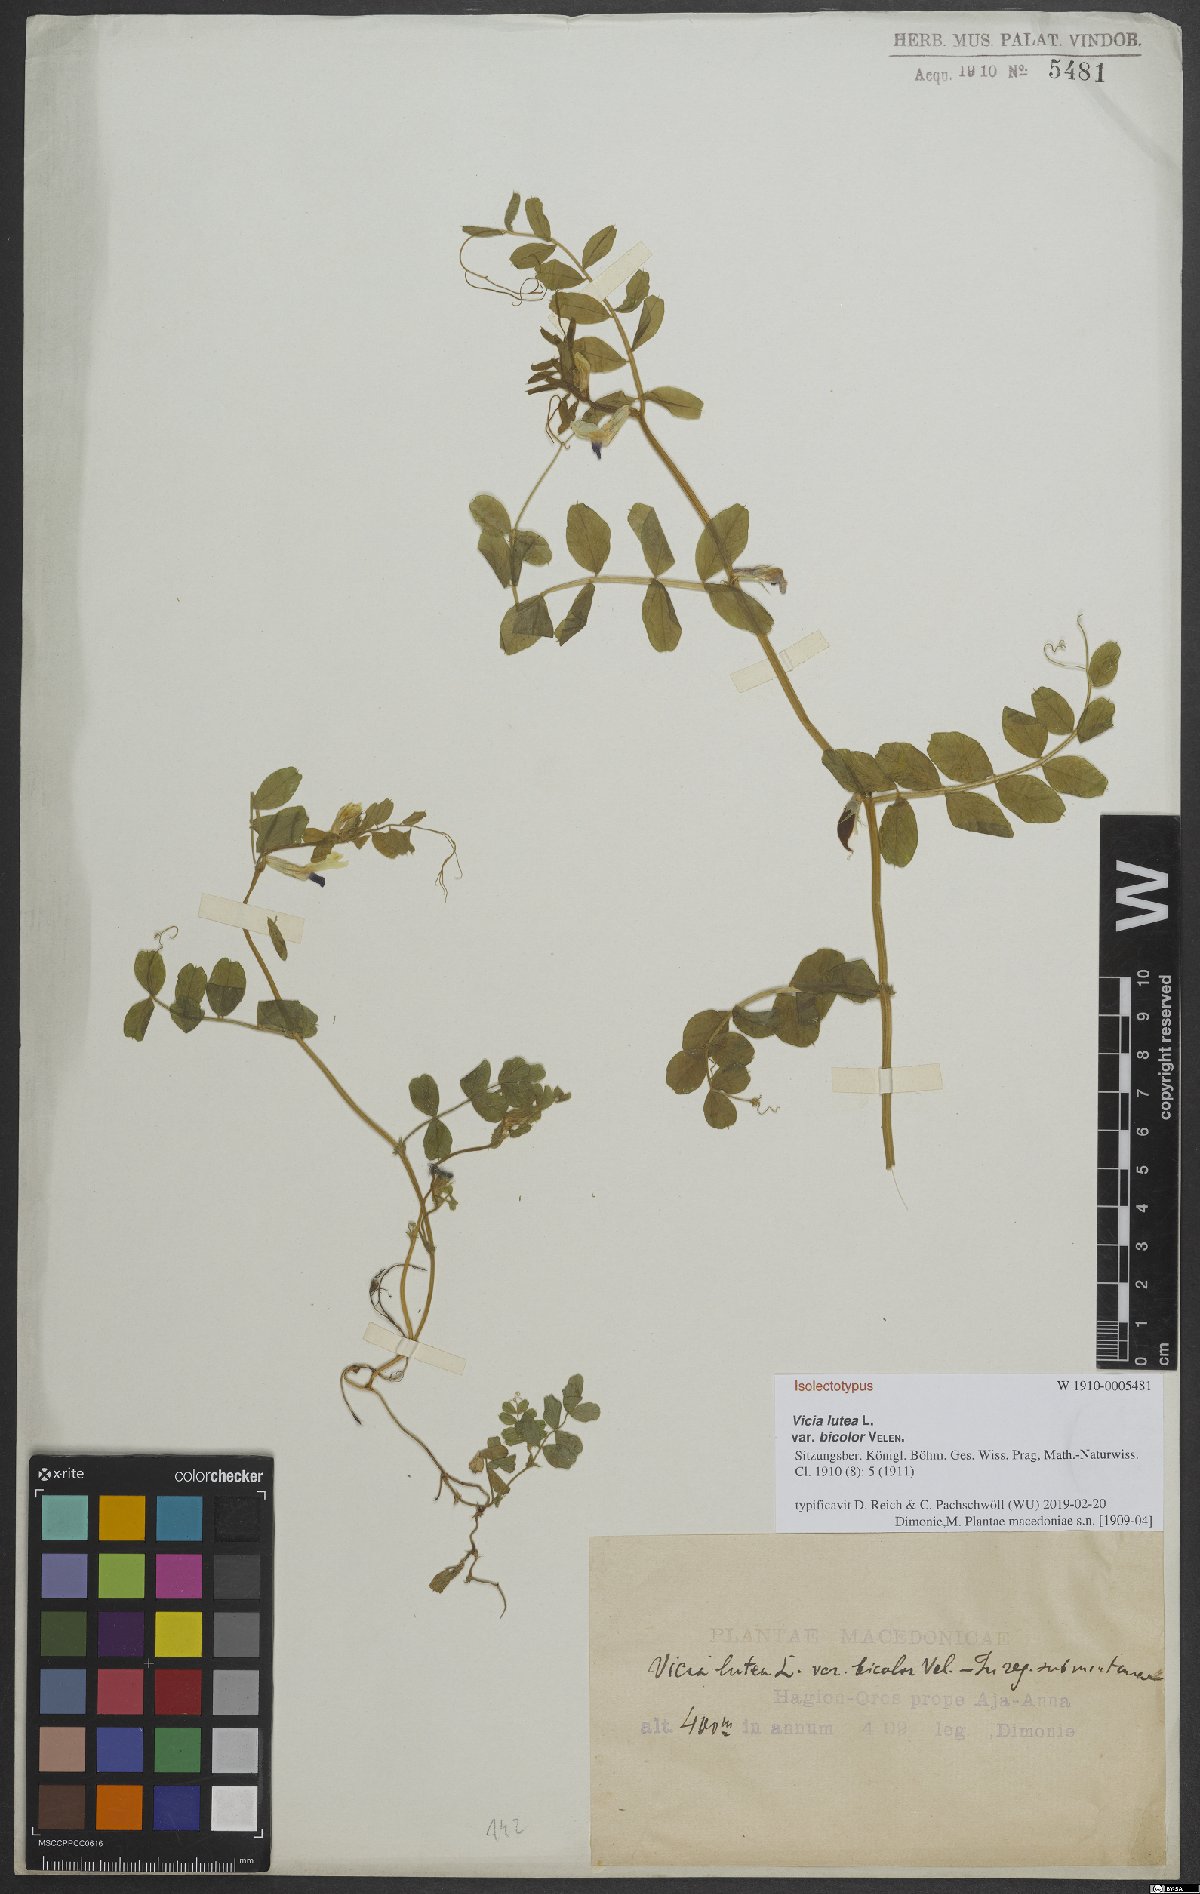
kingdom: Plantae
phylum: Tracheophyta
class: Magnoliopsida
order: Fabales
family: Fabaceae
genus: Vicia
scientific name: Vicia laeta
